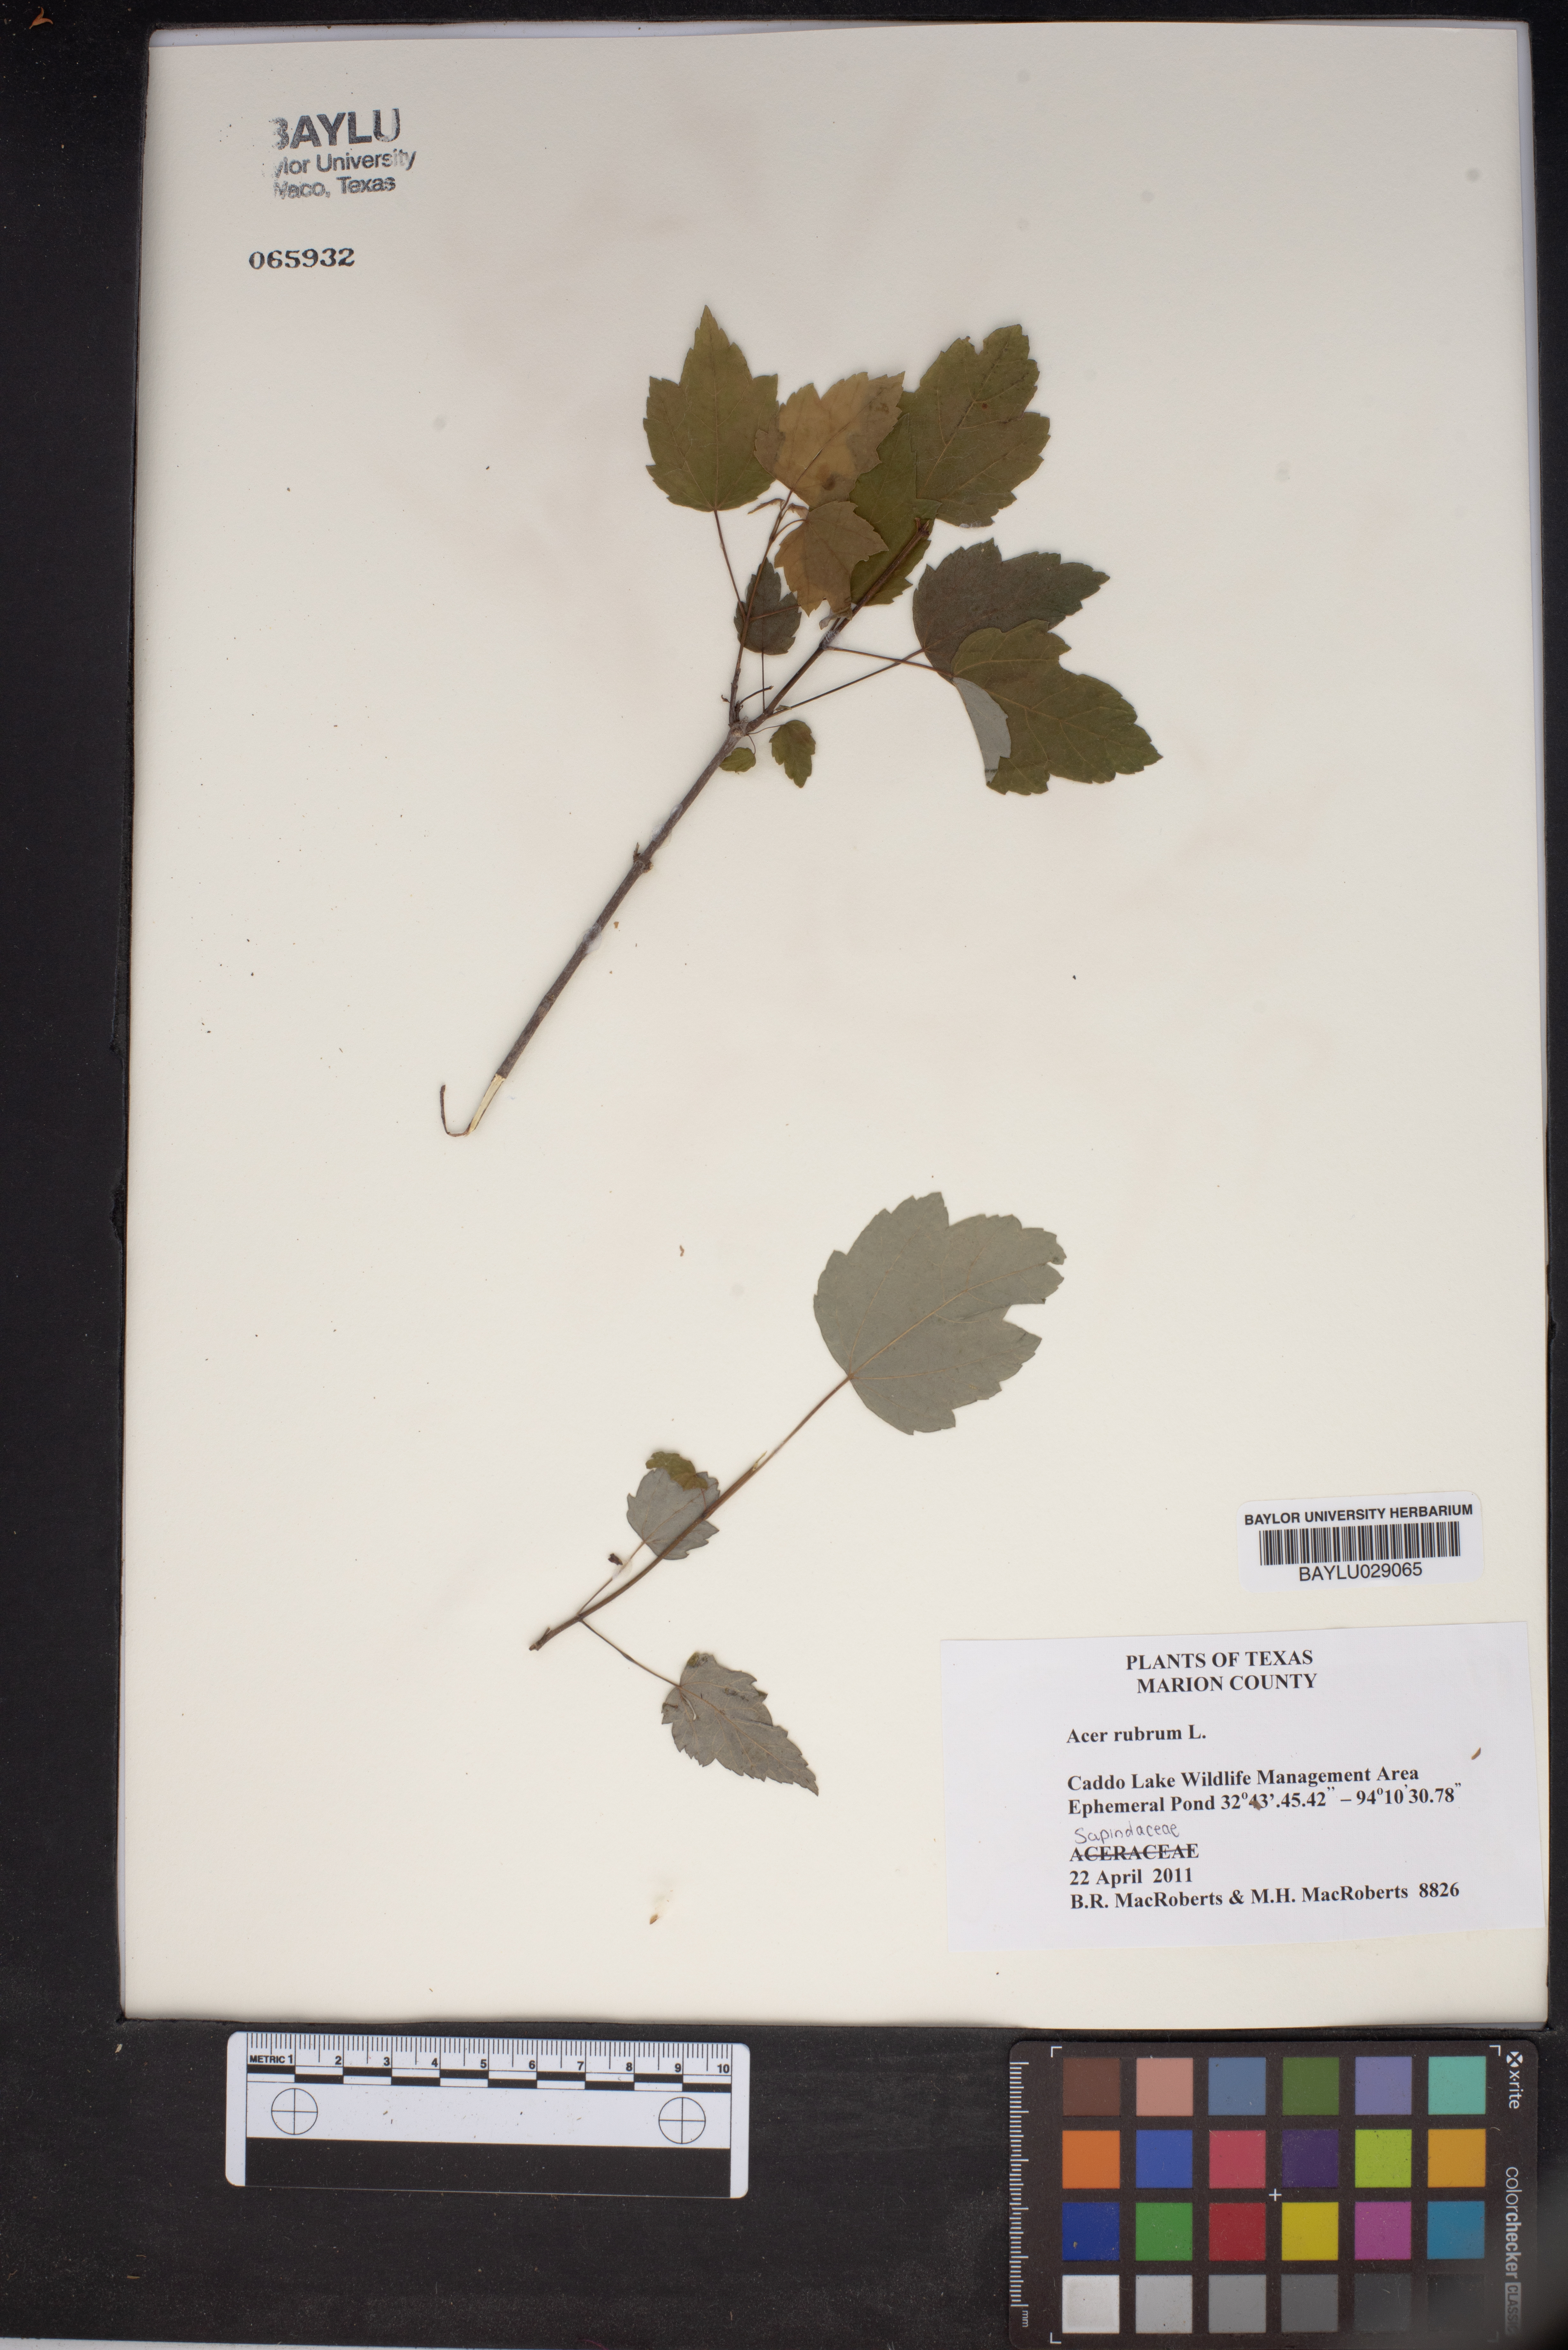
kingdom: Plantae
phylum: Tracheophyta
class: Magnoliopsida
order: Sapindales
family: Sapindaceae
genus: Acer
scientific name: Acer rubrum
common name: Red maple
